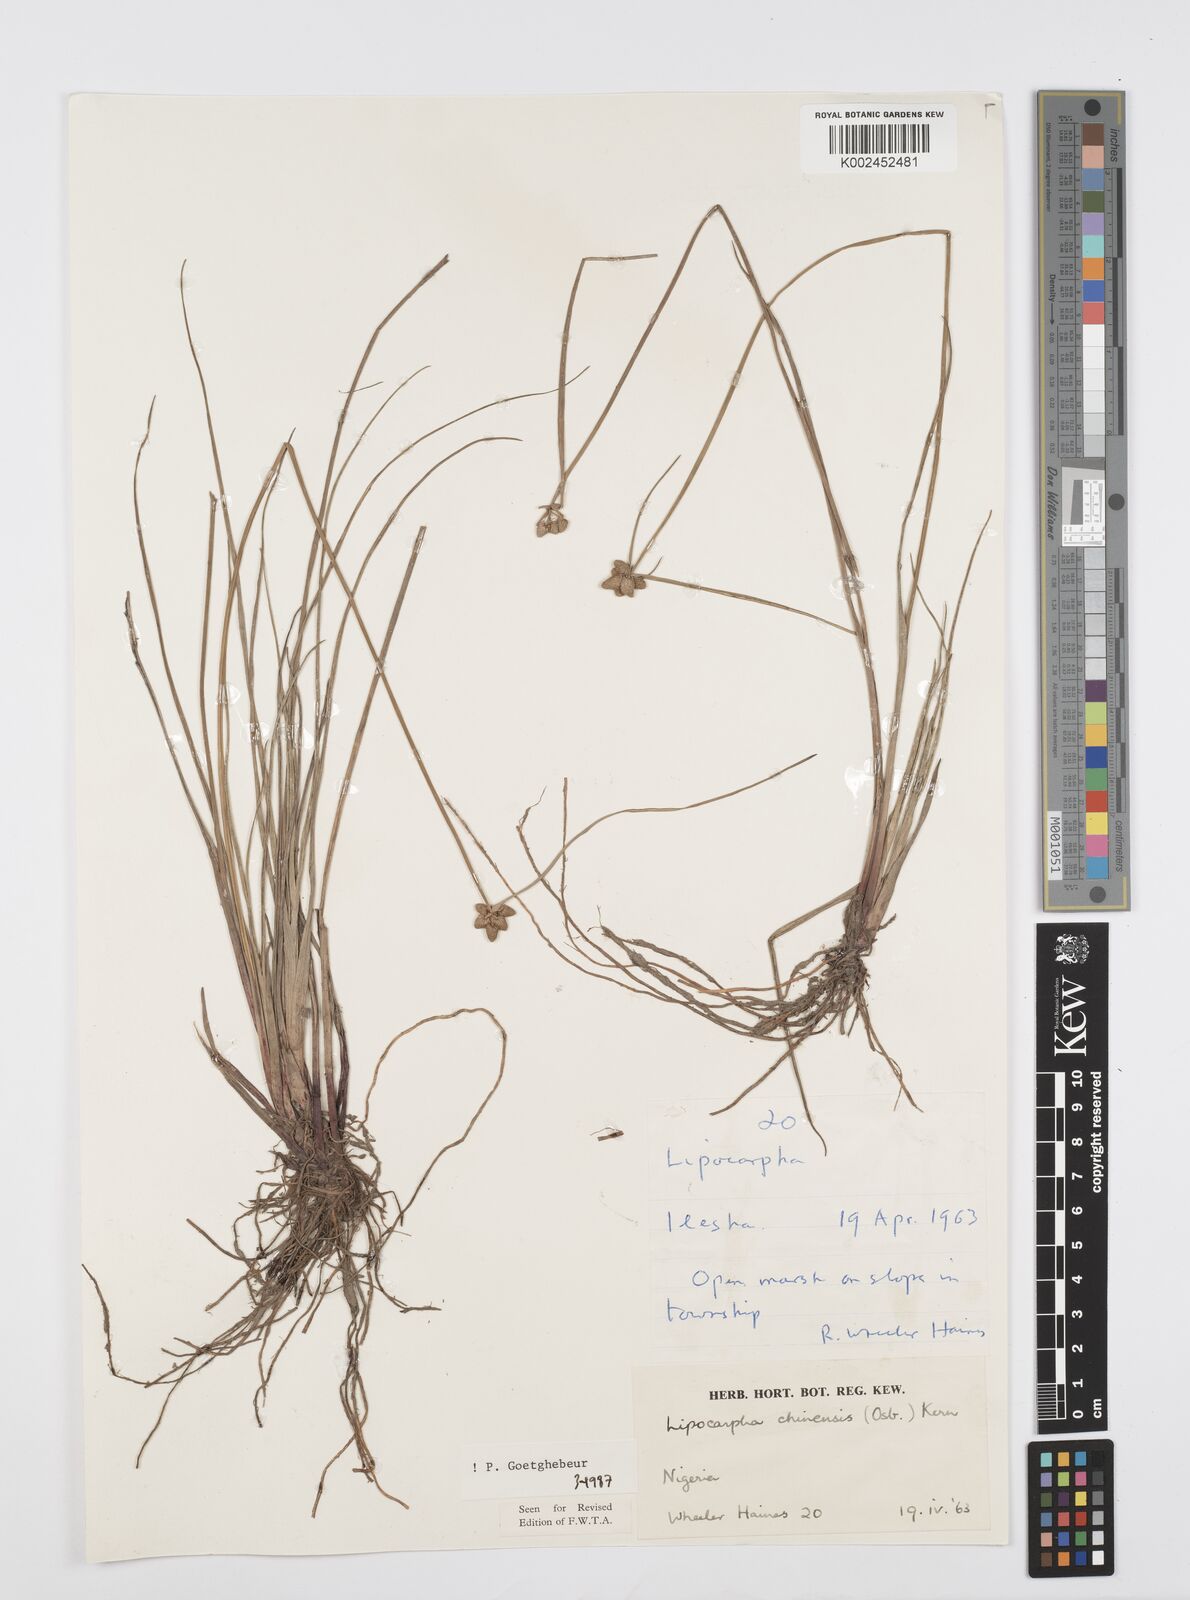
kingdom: Plantae
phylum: Tracheophyta
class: Liliopsida
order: Poales
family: Cyperaceae
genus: Cyperus
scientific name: Cyperus albescens
